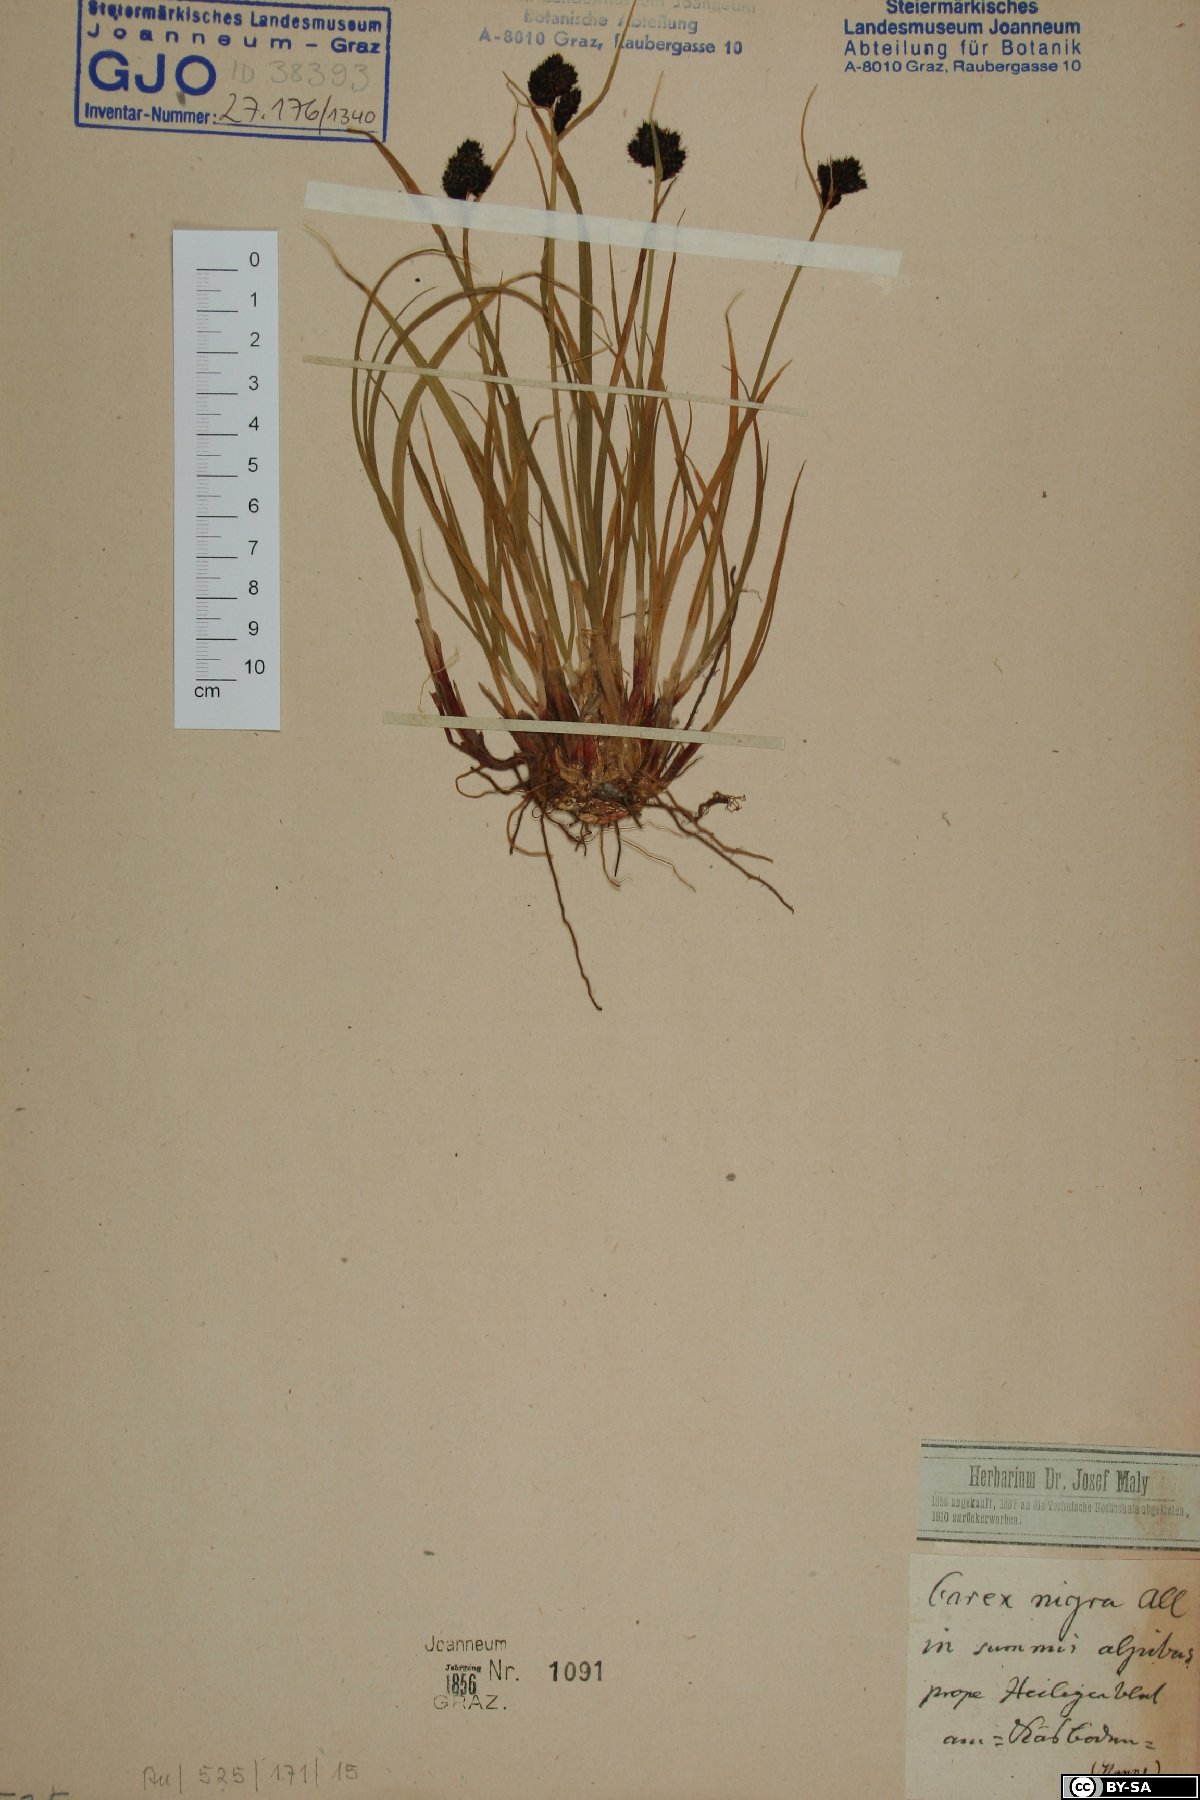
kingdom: Plantae
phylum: Tracheophyta
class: Liliopsida
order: Poales
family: Cyperaceae
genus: Carex
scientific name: Carex nigra
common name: Common sedge
